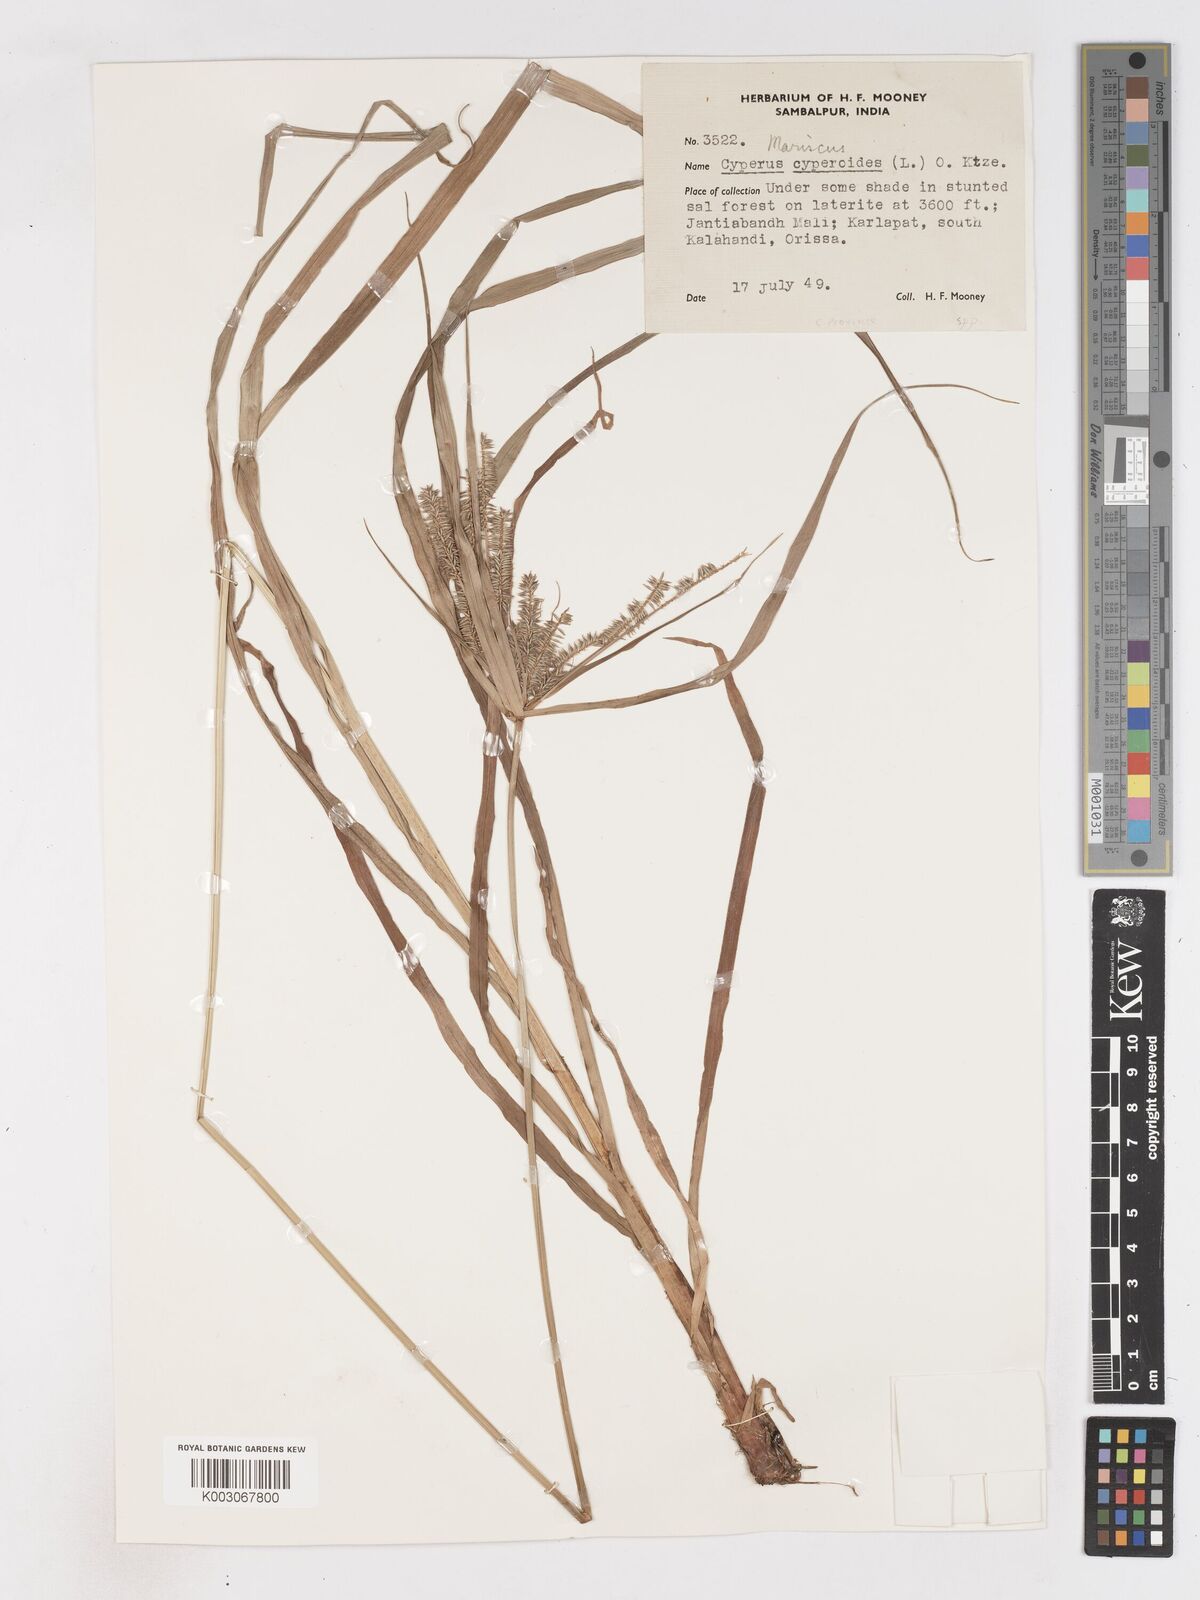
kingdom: Plantae
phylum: Tracheophyta
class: Liliopsida
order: Poales
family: Cyperaceae
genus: Cyperus
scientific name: Cyperus cyperoides
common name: Pacific island flat sedge
